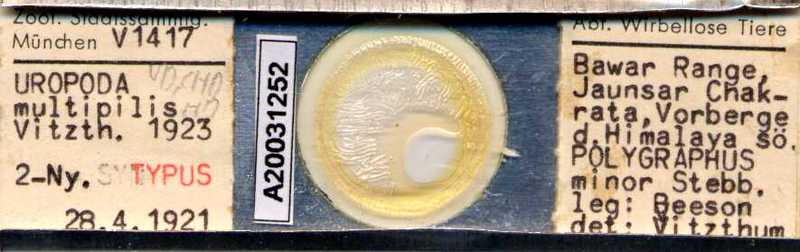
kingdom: Animalia
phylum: Arthropoda
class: Arachnida
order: Mesostigmata
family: Trematuridae
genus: Trichouropoda
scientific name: Trichouropoda
